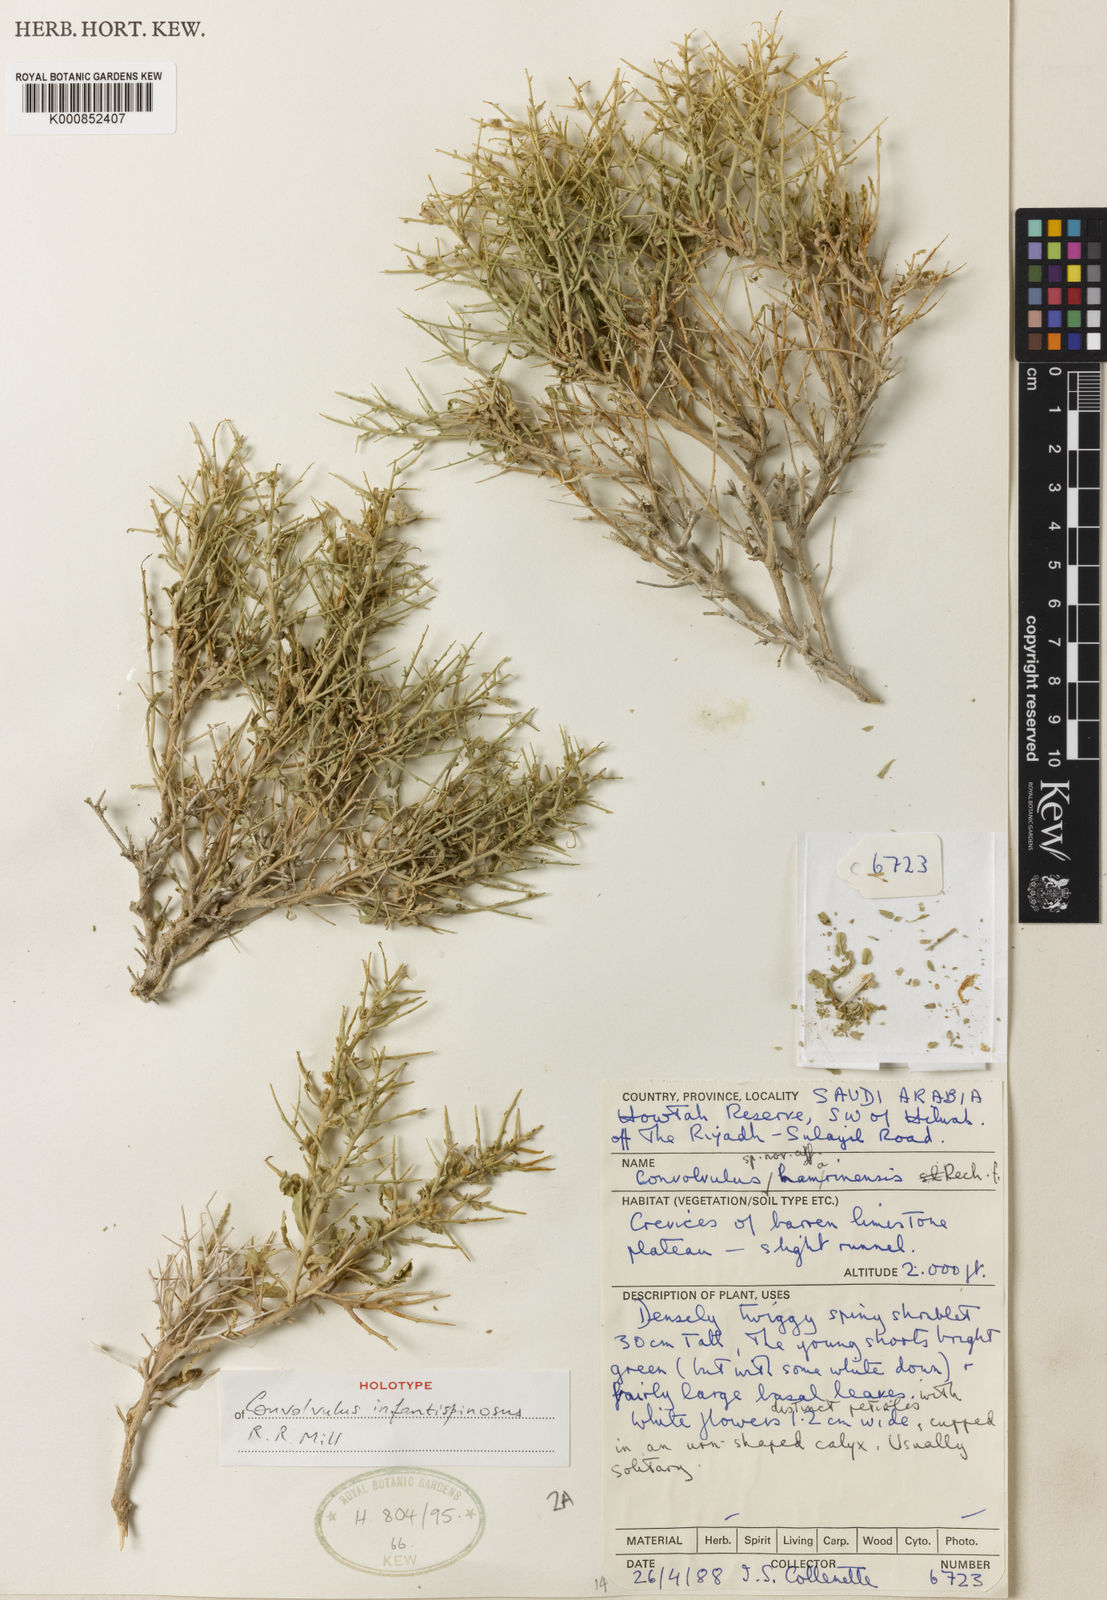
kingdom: Plantae
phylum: Tracheophyta
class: Magnoliopsida
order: Solanales
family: Convolvulaceae
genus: Convolvulus
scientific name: Convolvulus hamrinensis
